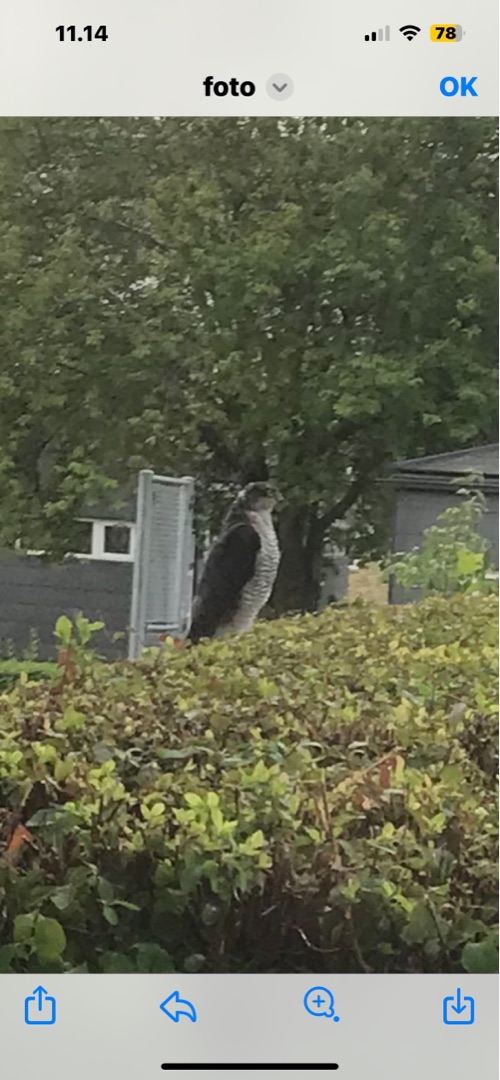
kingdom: Animalia
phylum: Chordata
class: Aves
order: Accipitriformes
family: Accipitridae
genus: Accipiter
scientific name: Accipiter nisus
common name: Spurvehøg
